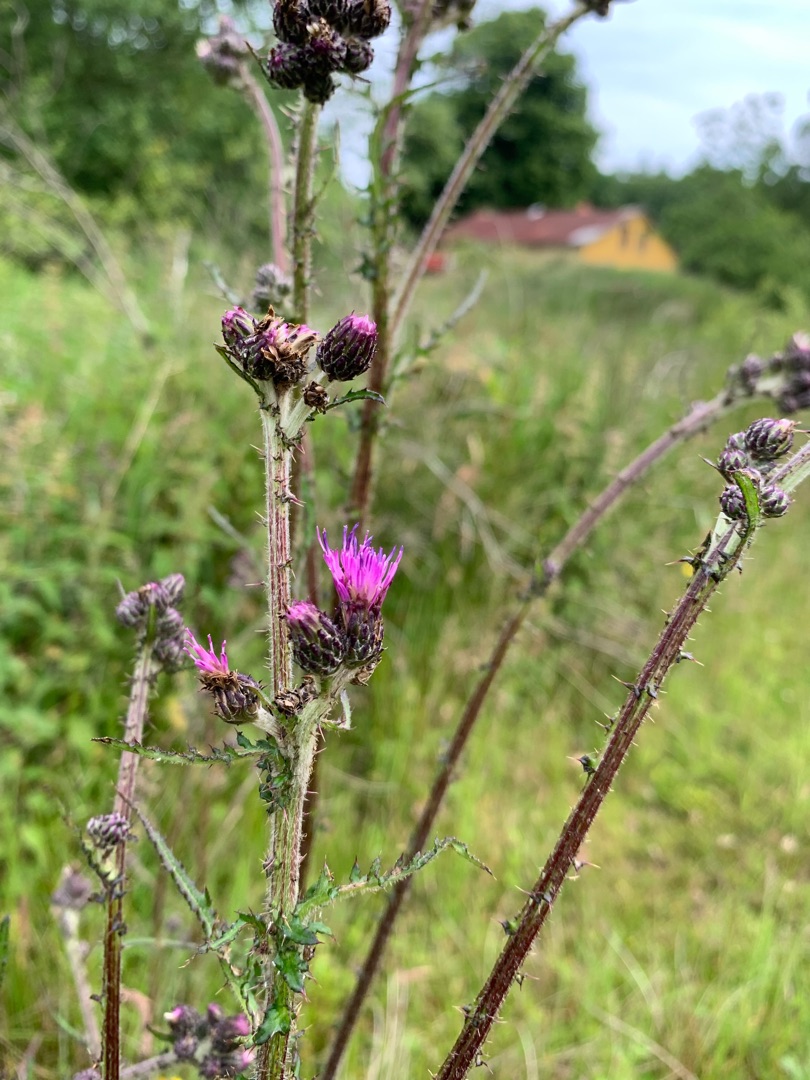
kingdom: Plantae
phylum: Tracheophyta
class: Magnoliopsida
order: Asterales
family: Asteraceae
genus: Cirsium
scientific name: Cirsium vulgare
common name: Horse-tidsel
